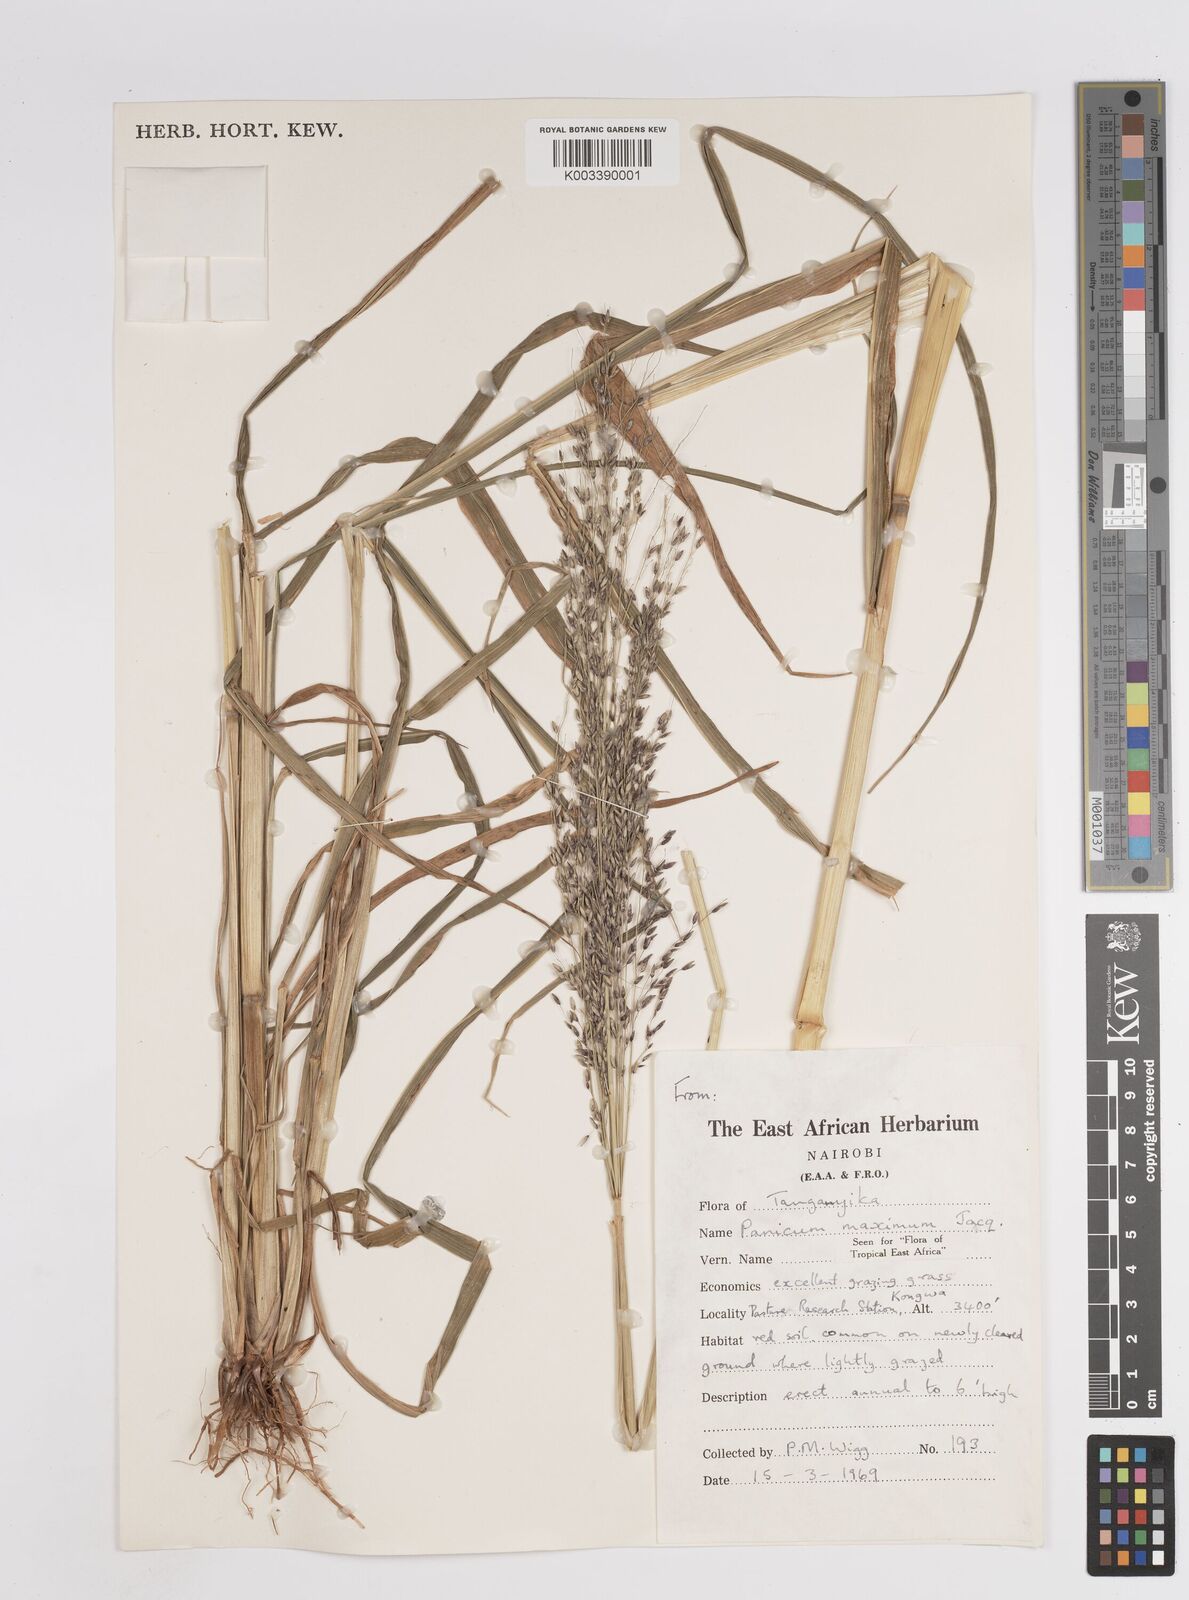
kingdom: Plantae
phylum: Tracheophyta
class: Liliopsida
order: Poales
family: Poaceae
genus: Megathyrsus
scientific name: Megathyrsus maximus
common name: Guineagrass
